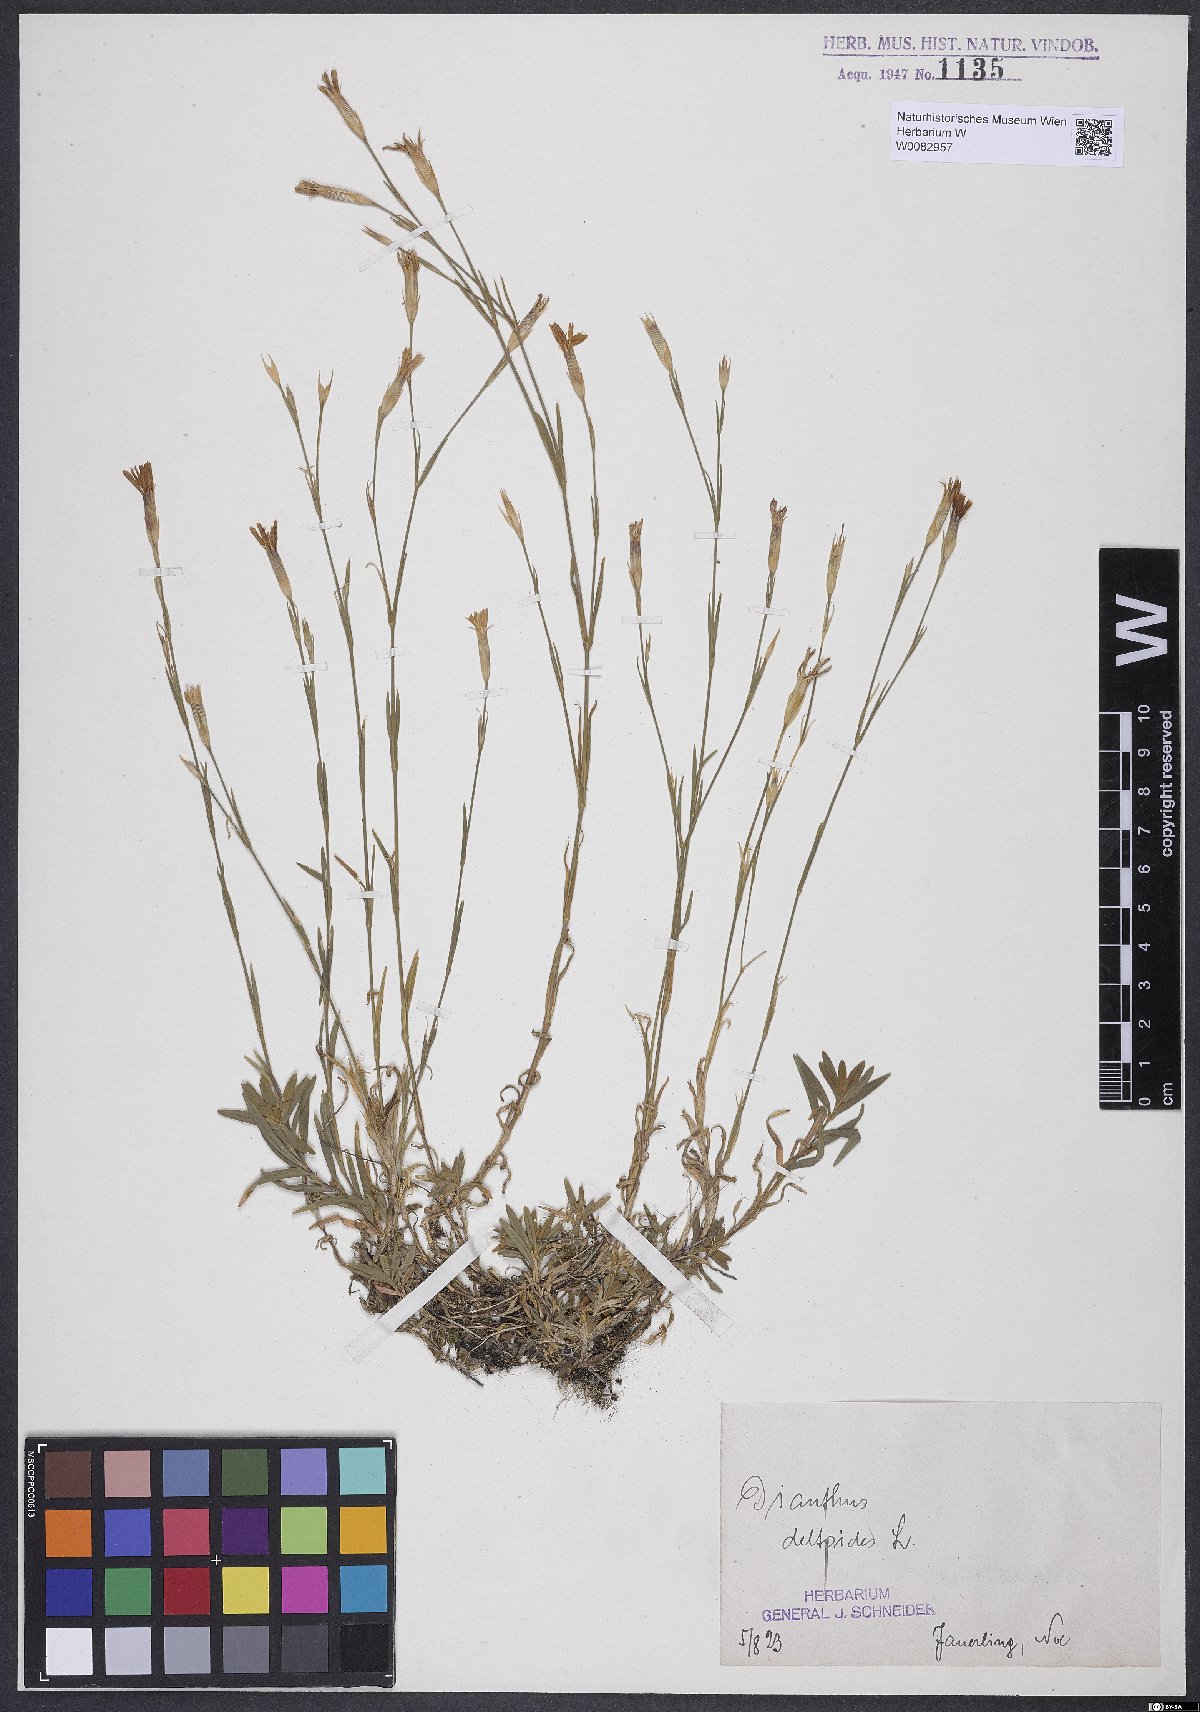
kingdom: Plantae
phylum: Tracheophyta
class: Magnoliopsida
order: Caryophyllales
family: Caryophyllaceae
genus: Dianthus
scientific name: Dianthus deltoides
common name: Maiden pink
